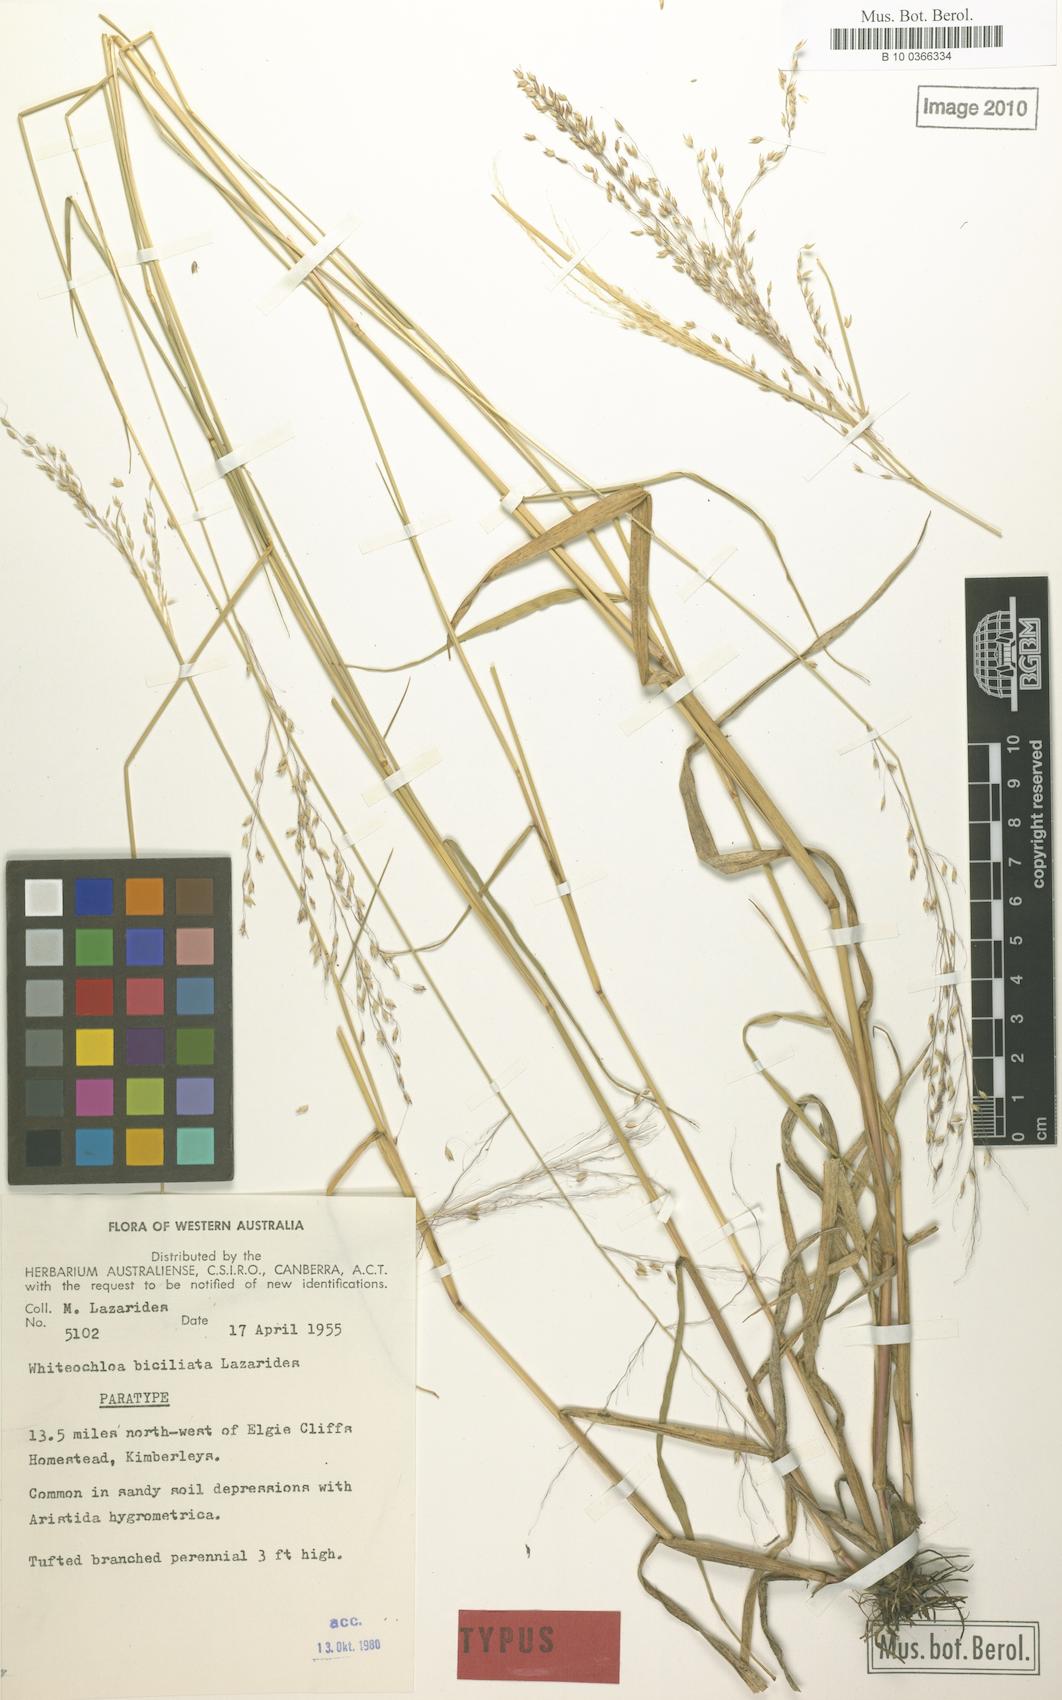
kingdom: Plantae
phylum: Tracheophyta
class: Liliopsida
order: Poales
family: Poaceae
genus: Whiteochloa
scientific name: Whiteochloa biciliata
